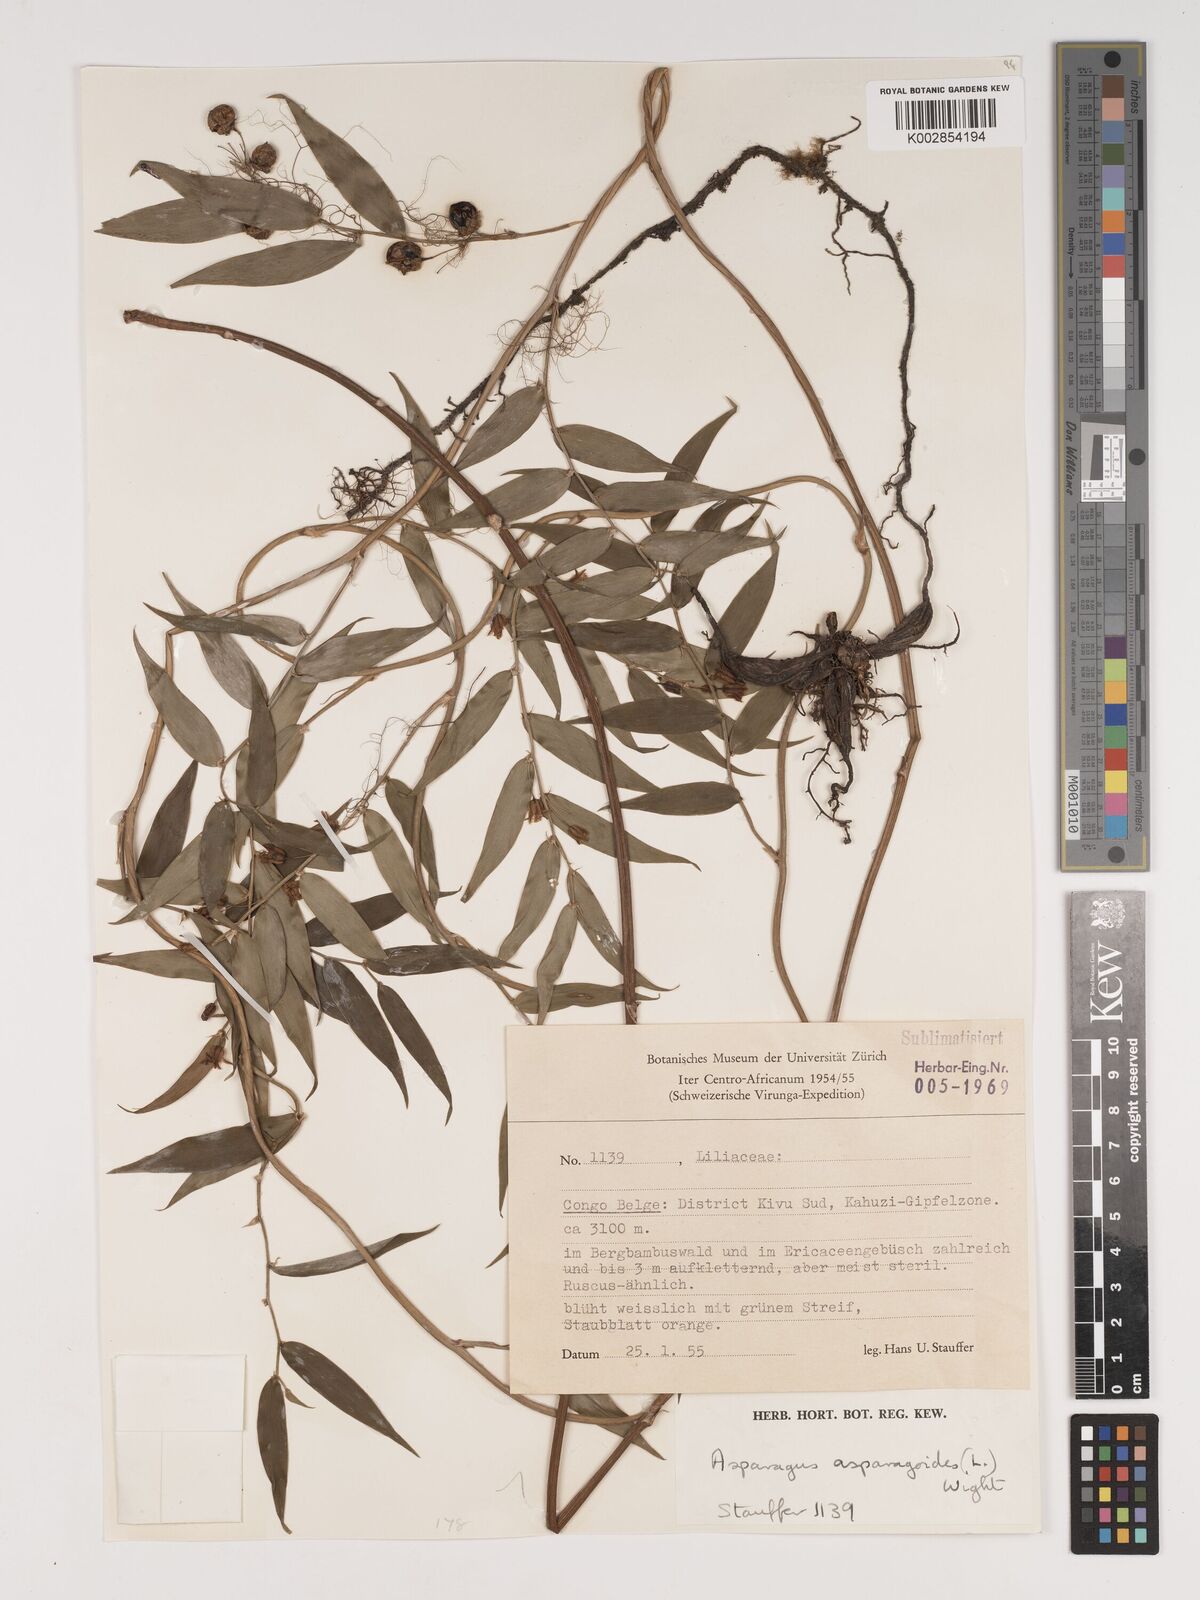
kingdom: Plantae
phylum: Tracheophyta
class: Liliopsida
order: Asparagales
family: Asparagaceae
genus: Asparagus
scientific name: Asparagus asparagoides
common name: African asparagus fern
